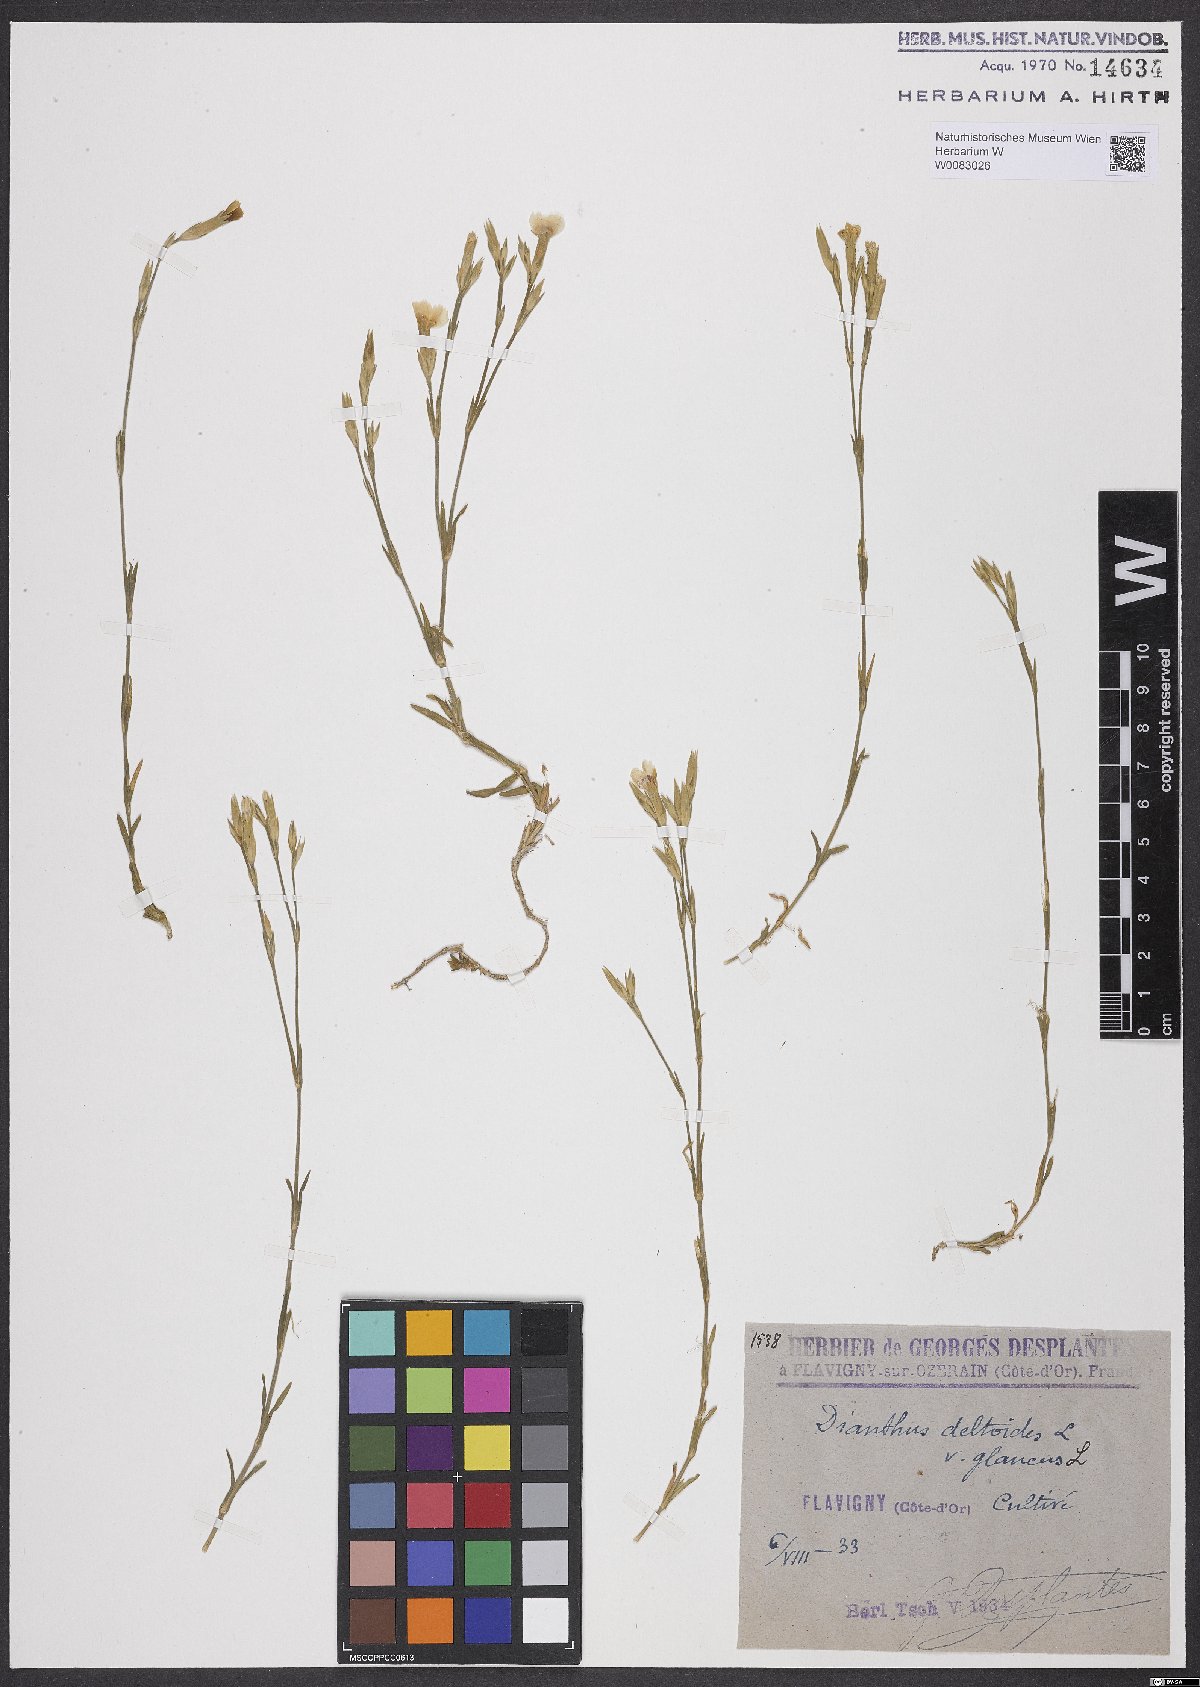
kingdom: Plantae
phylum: Tracheophyta
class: Magnoliopsida
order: Caryophyllales
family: Caryophyllaceae
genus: Dianthus
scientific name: Dianthus deltoides
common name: Maiden pink
